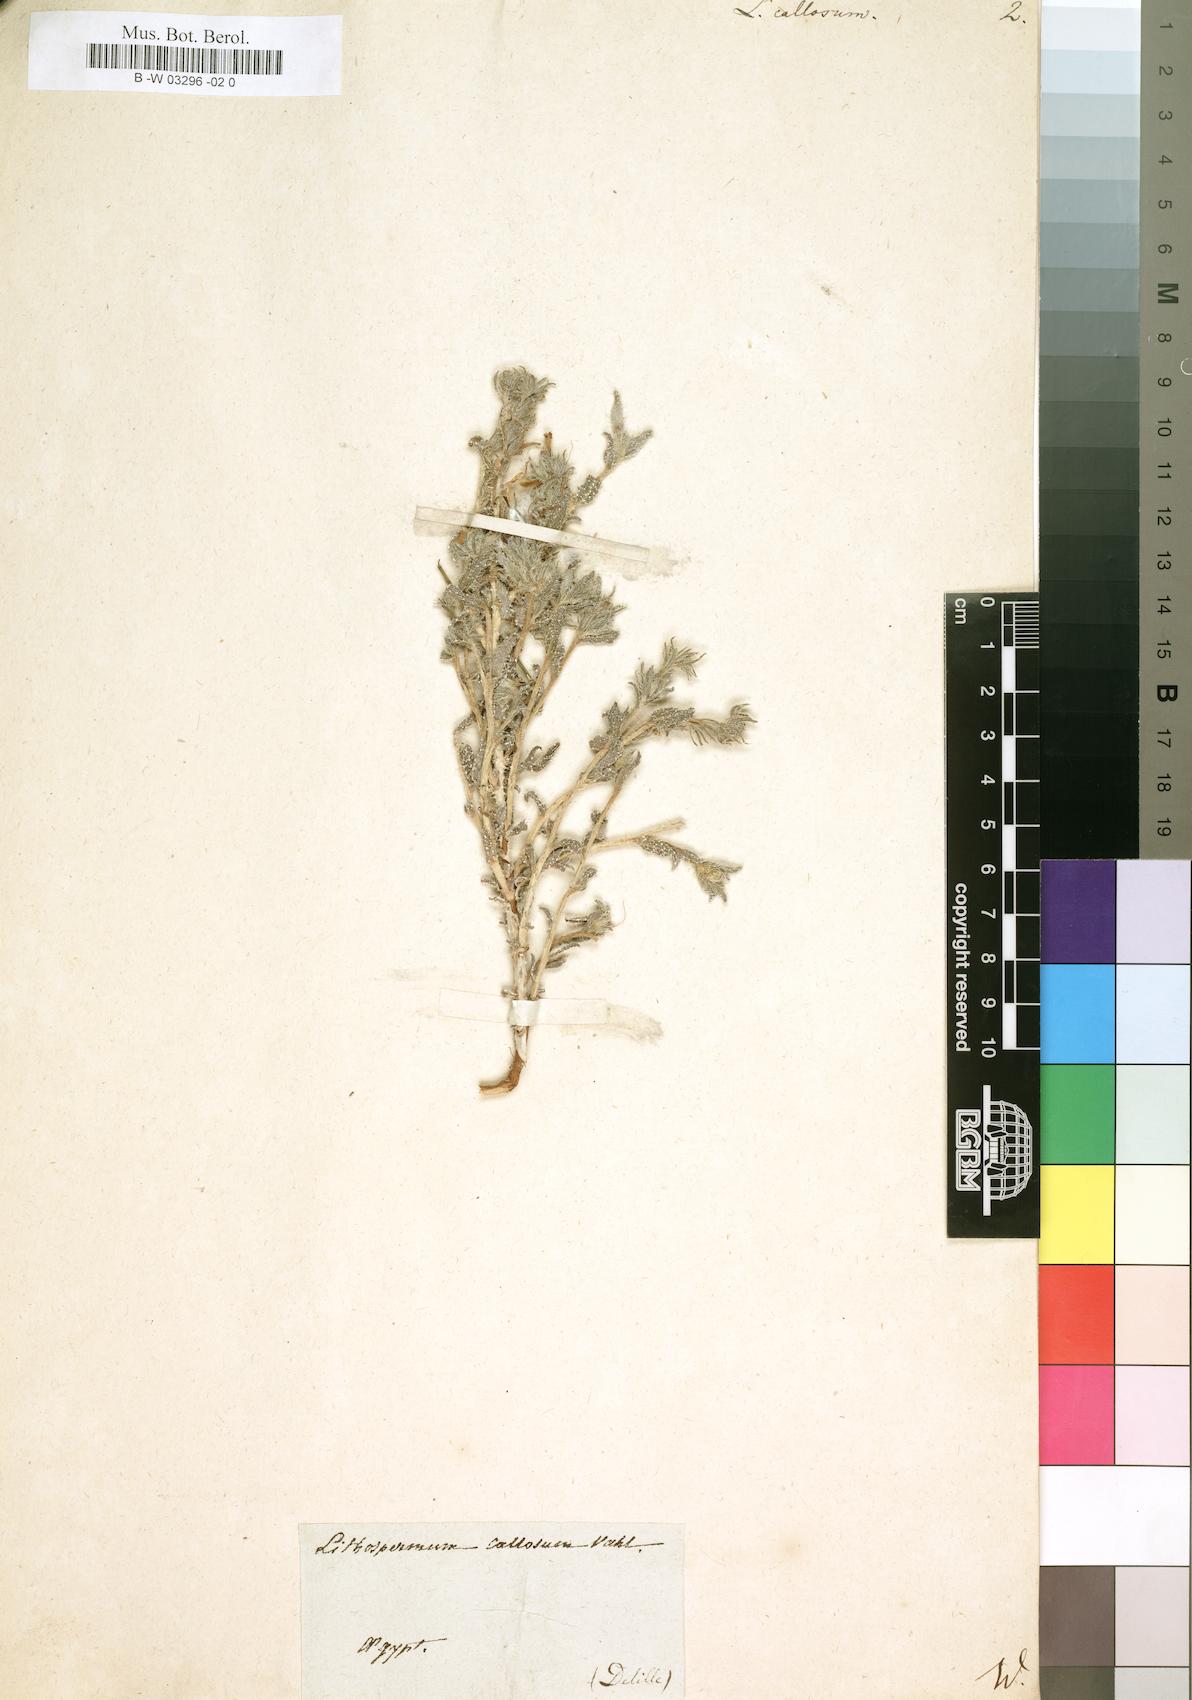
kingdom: Plantae
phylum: Tracheophyta
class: Magnoliopsida
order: Boraginales
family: Boraginaceae
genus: Moltkiopsis
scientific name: Moltkiopsis ciliata
